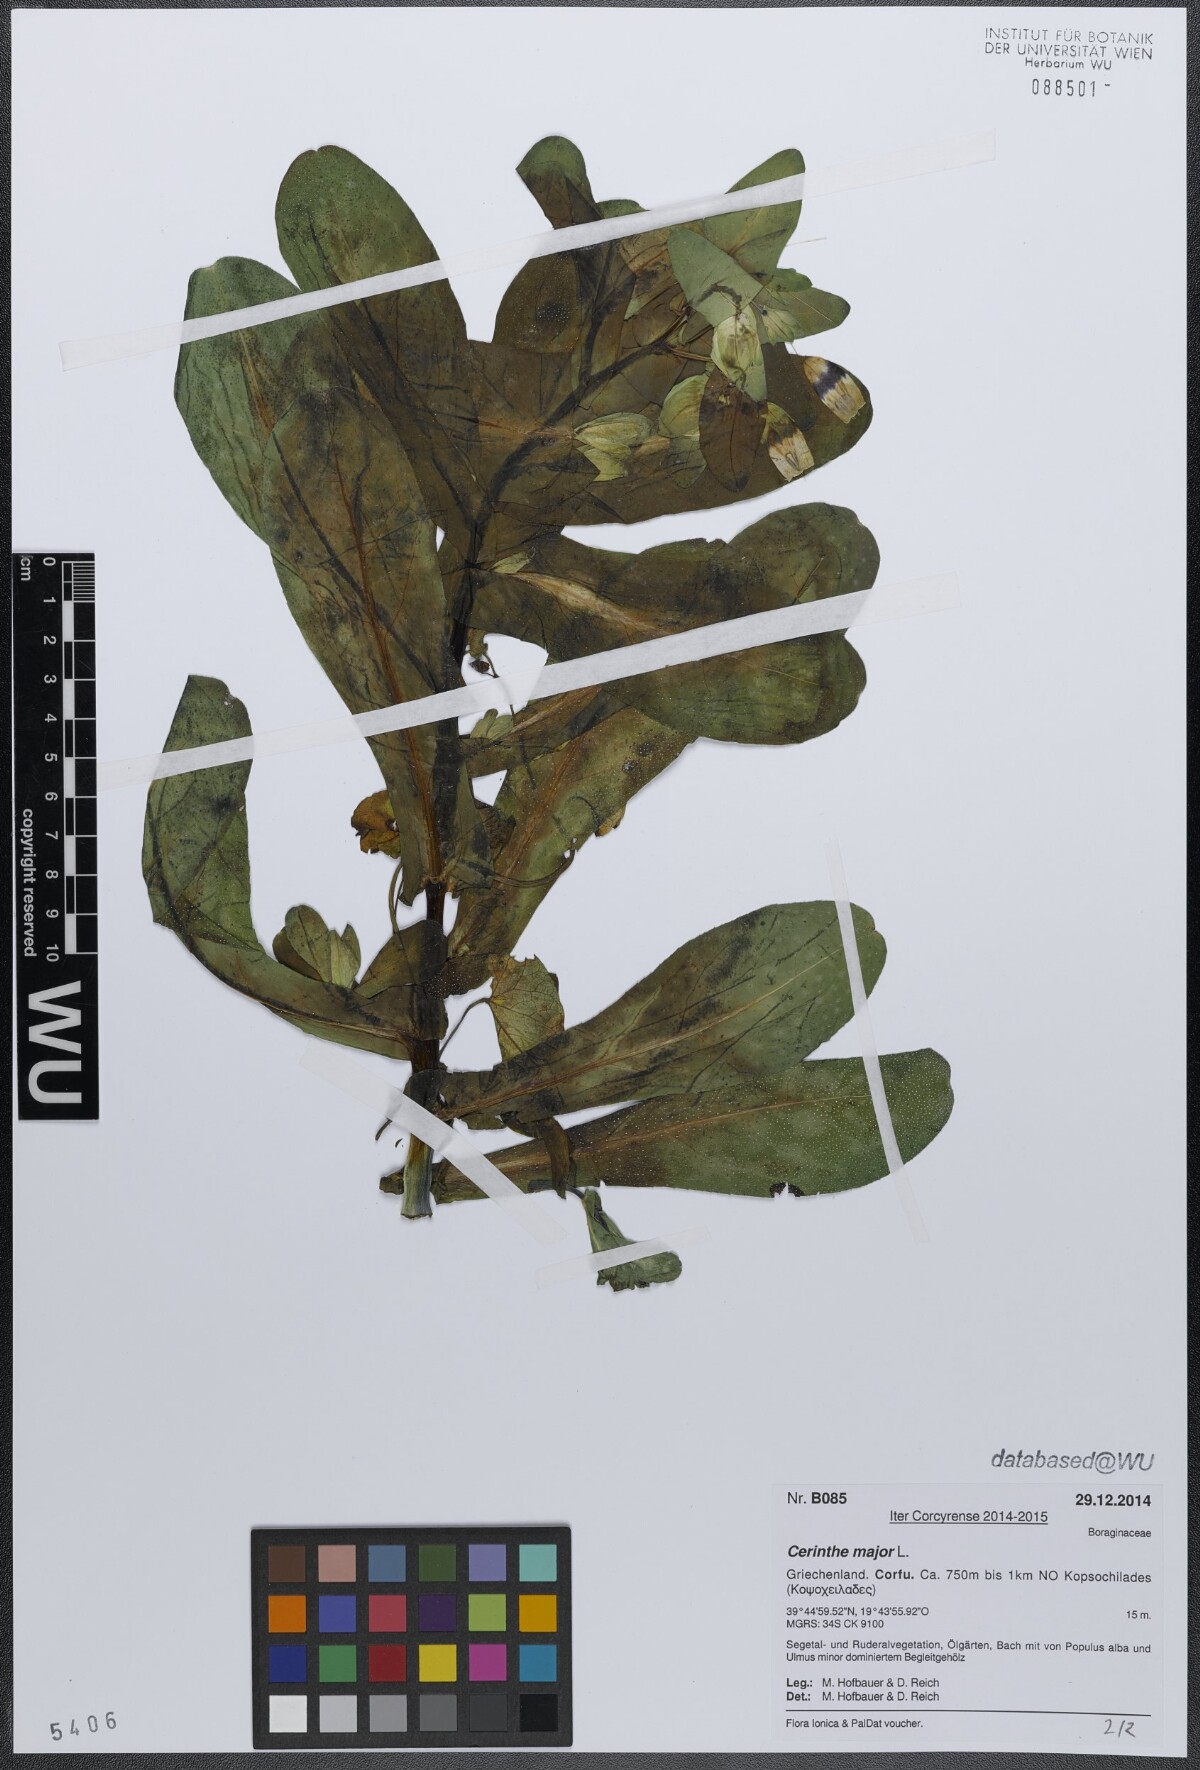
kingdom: Plantae
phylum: Tracheophyta
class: Magnoliopsida
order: Boraginales
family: Boraginaceae
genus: Cerinthe
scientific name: Cerinthe major
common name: Greater honeywort
